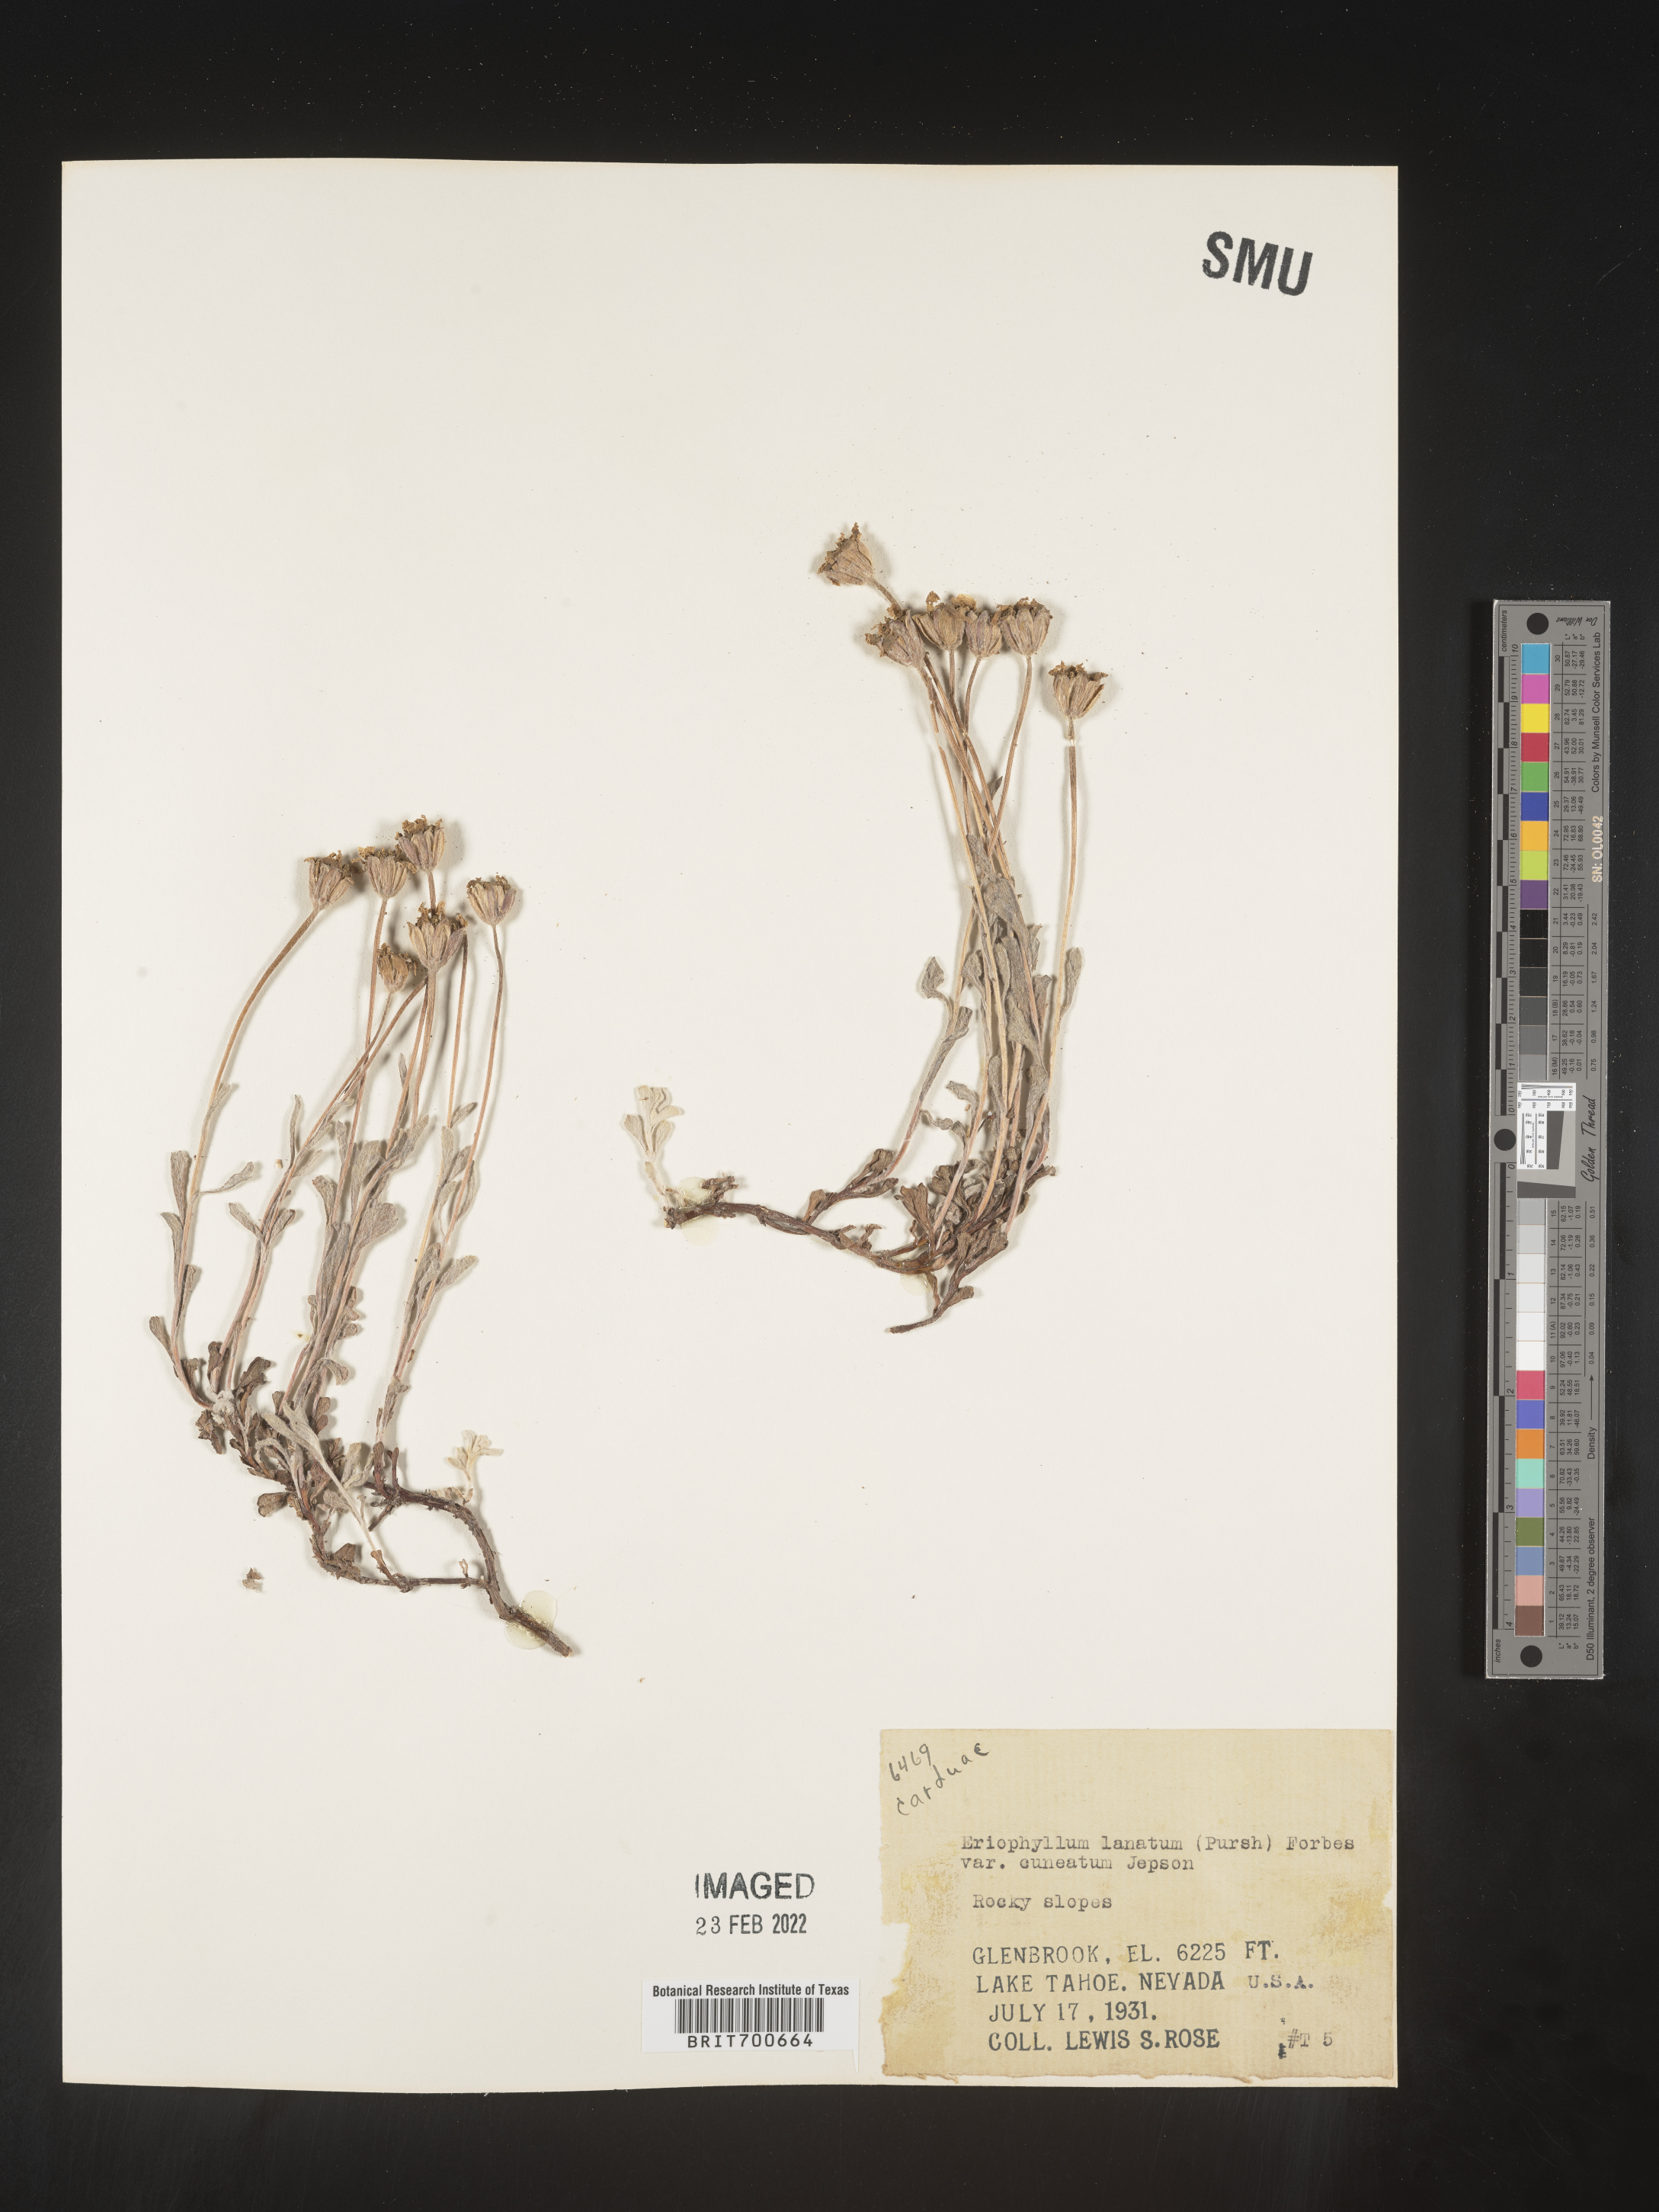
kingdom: Plantae
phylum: Tracheophyta
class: Magnoliopsida
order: Asterales
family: Asteraceae
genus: Eriophyllum
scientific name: Eriophyllum lanatum
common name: Common woolly-sunflower
